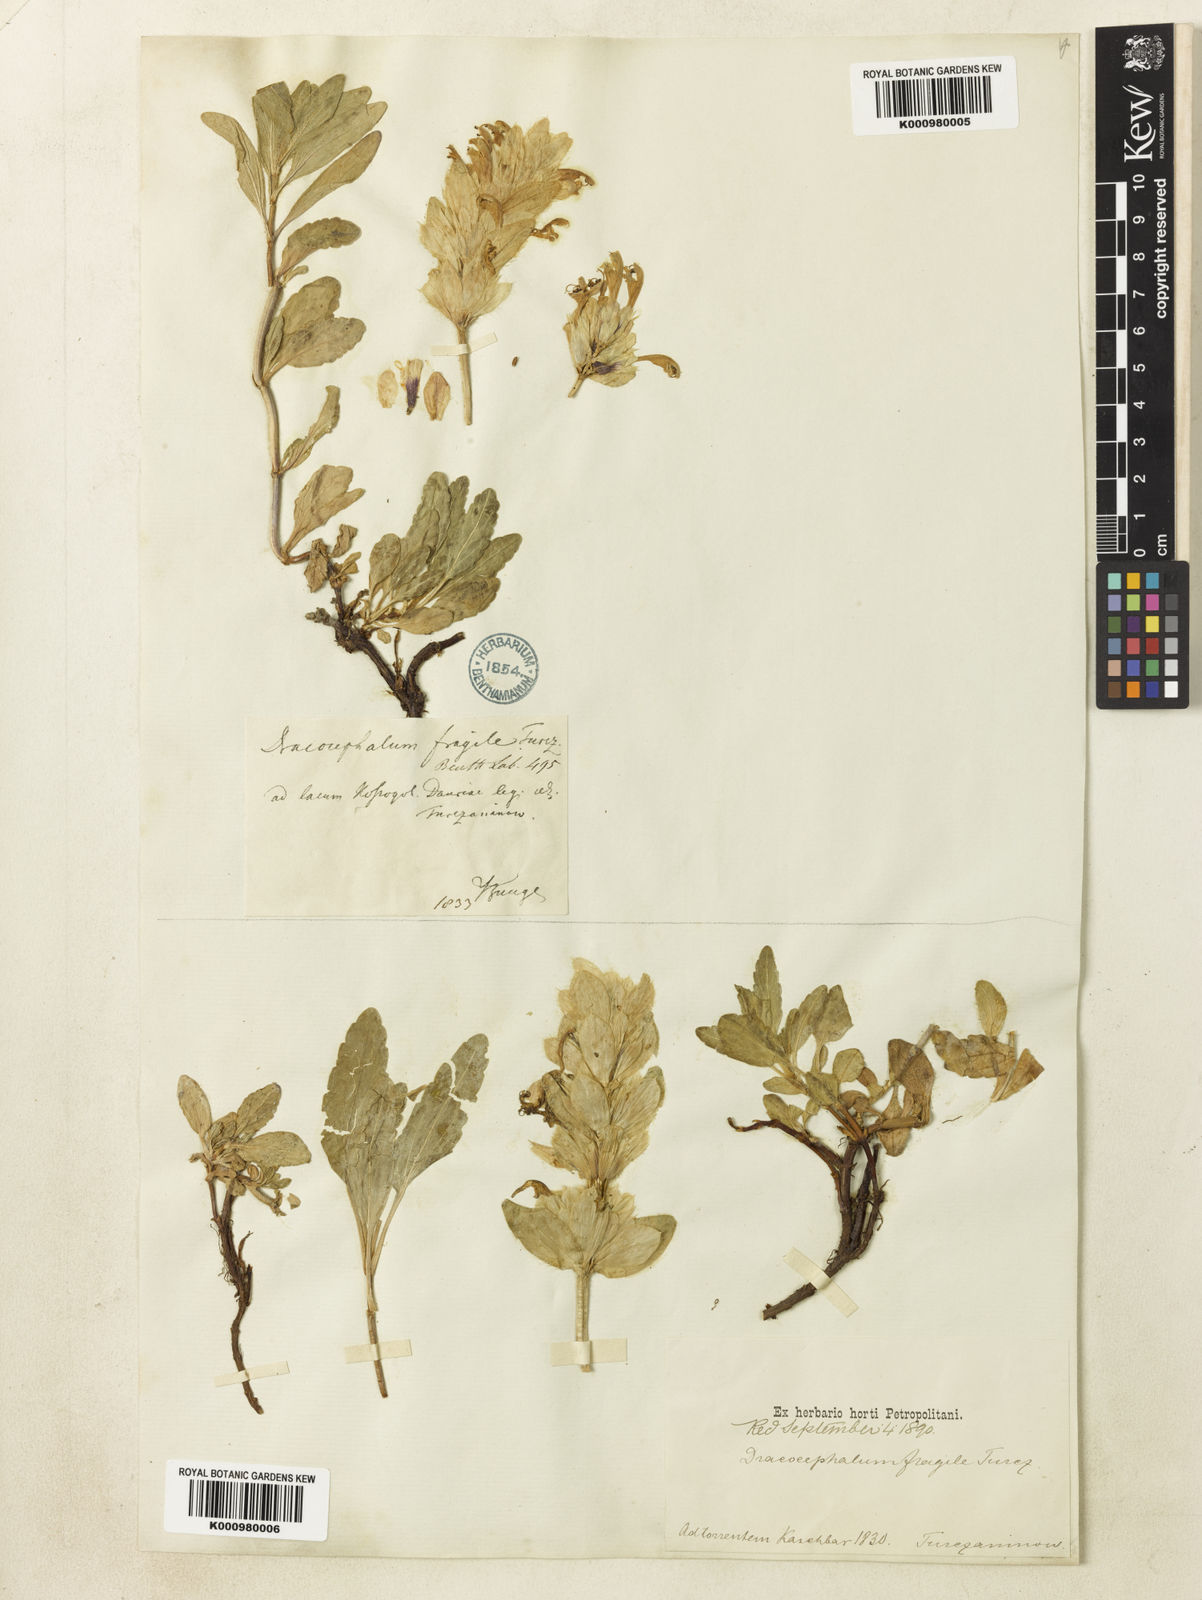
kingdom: Plantae
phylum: Tracheophyta
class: Magnoliopsida
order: Lamiales
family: Lamiaceae
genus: Dracocephalum
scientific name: Dracocephalum fragile
